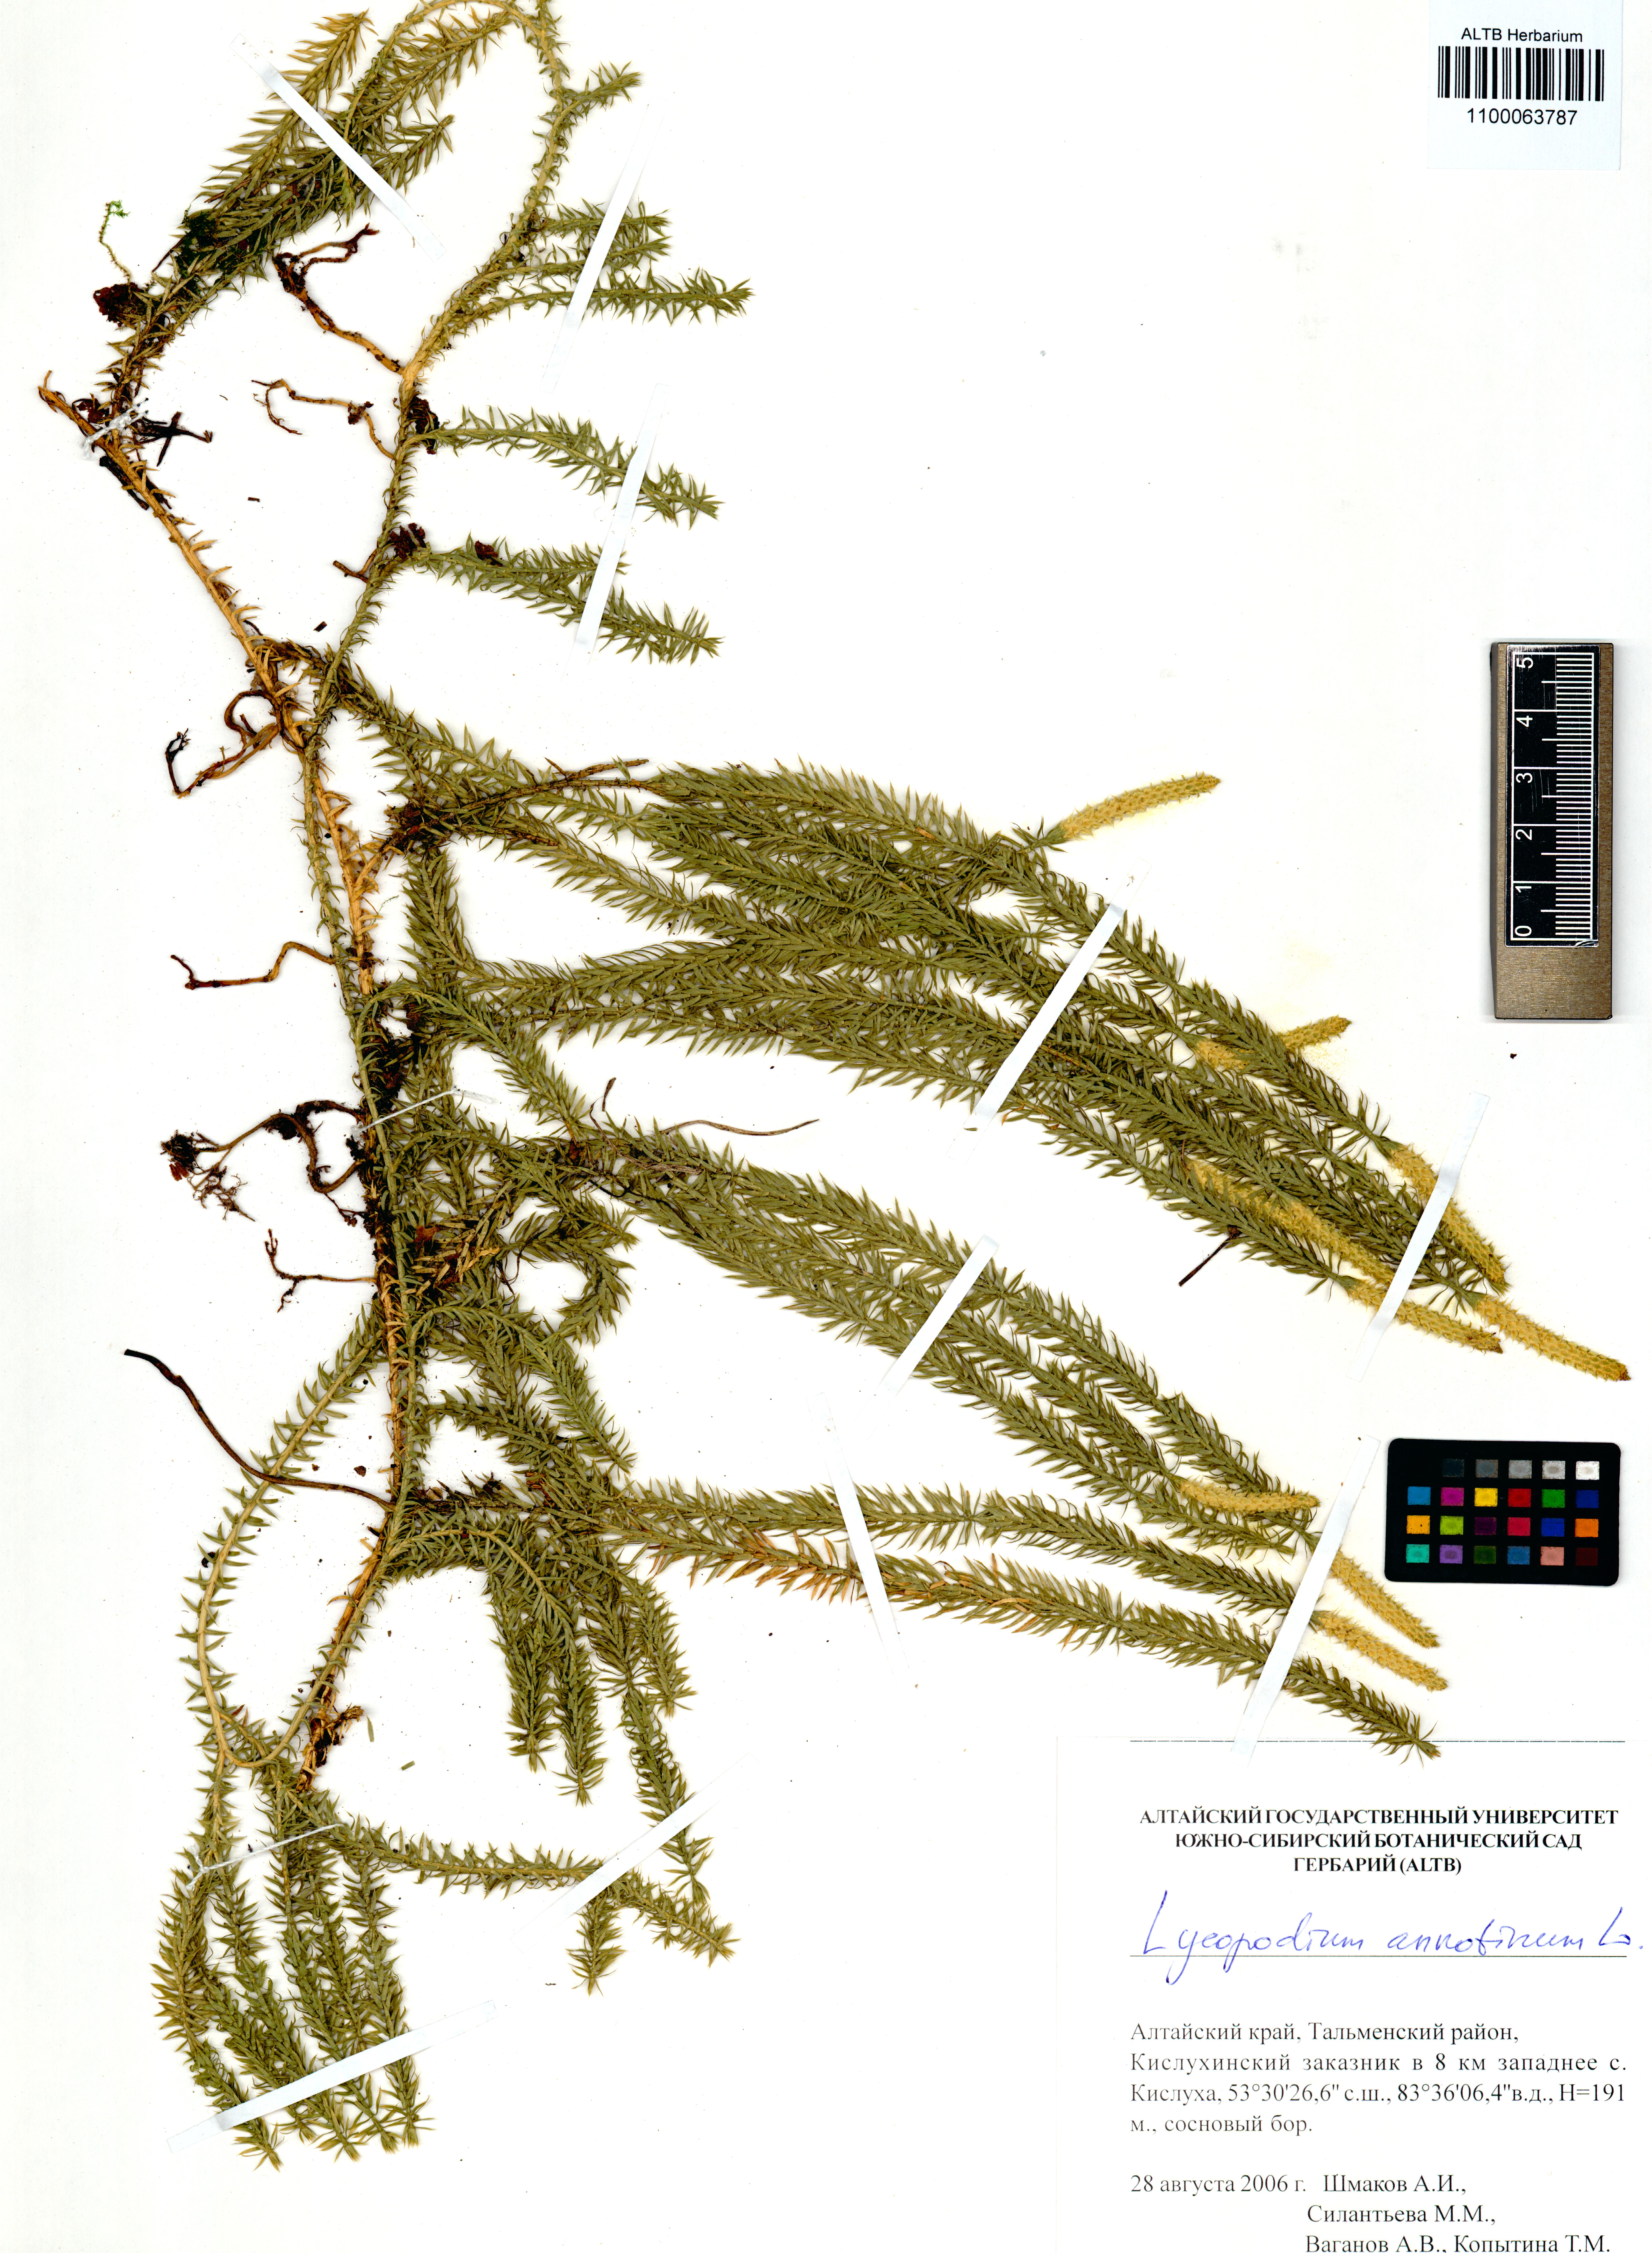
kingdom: Plantae
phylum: Tracheophyta
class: Lycopodiopsida
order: Lycopodiales
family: Lycopodiaceae
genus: Spinulum
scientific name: Spinulum annotinum
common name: Interrupted club-moss
